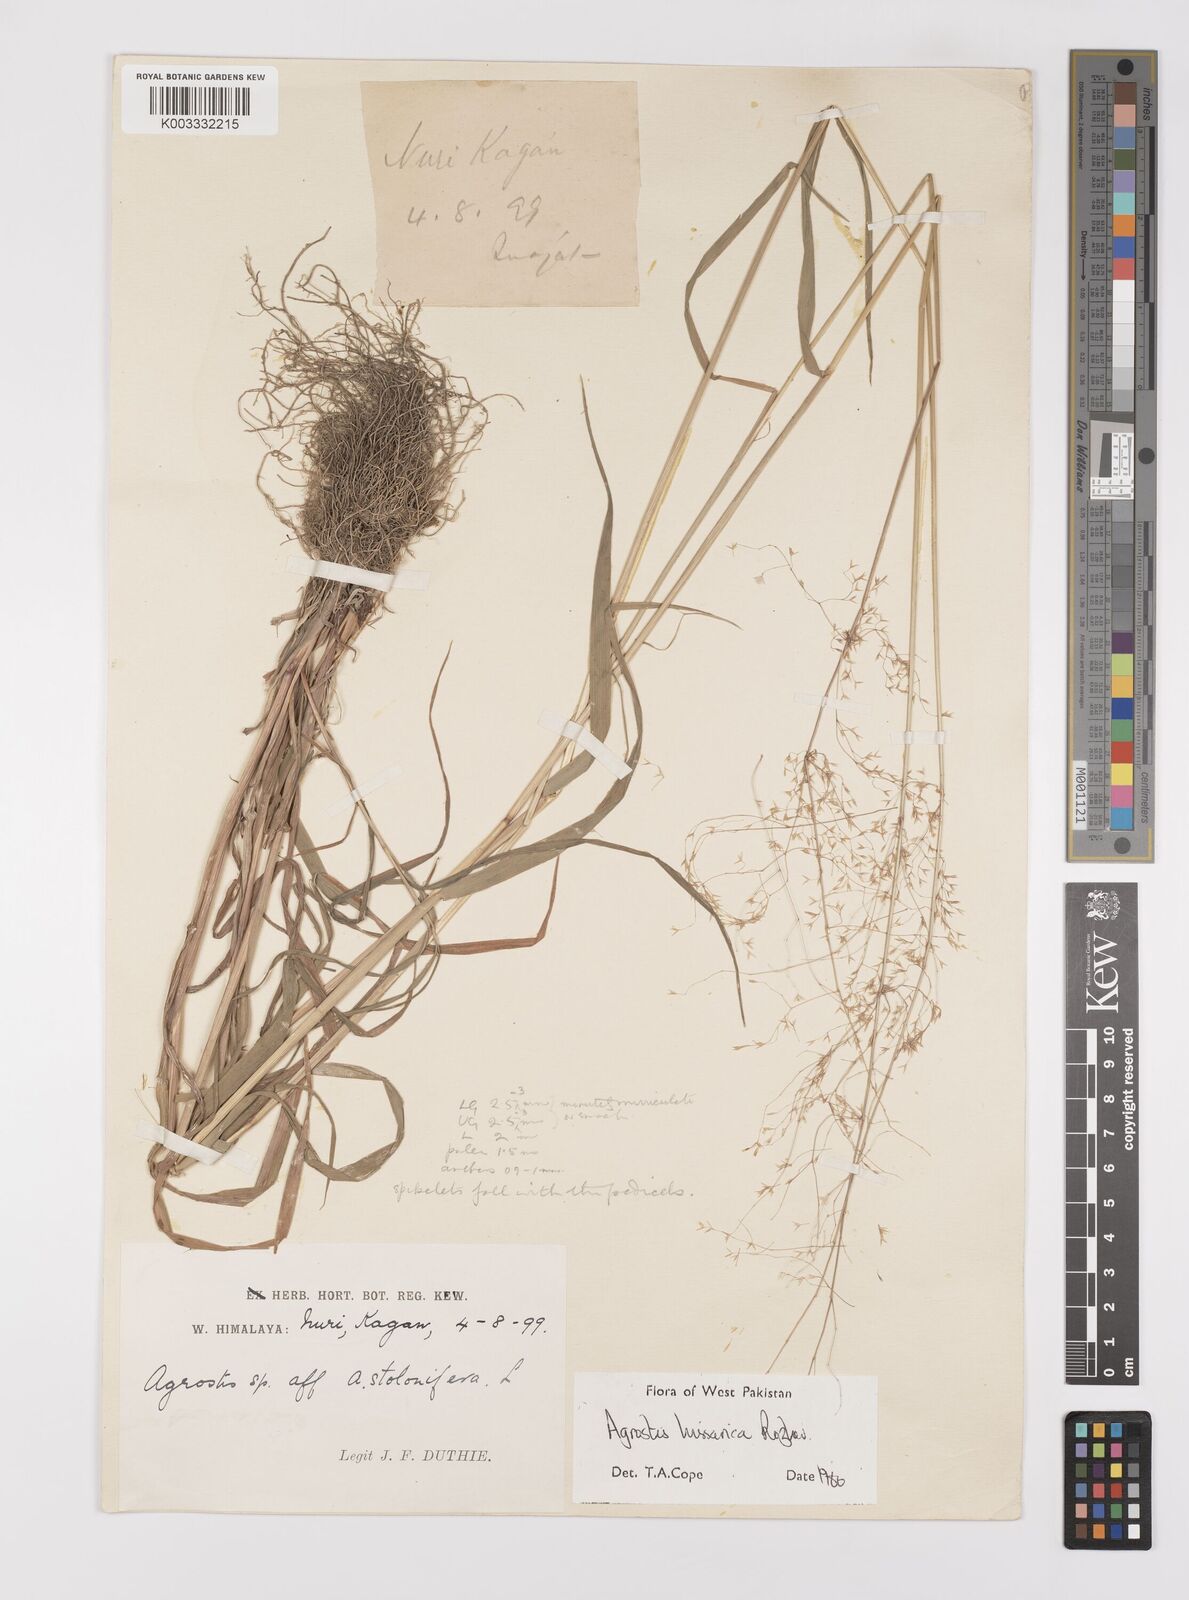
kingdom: Plantae
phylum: Tracheophyta
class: Liliopsida
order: Poales
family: Poaceae
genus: Polypogon
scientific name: Polypogon hissaricus
